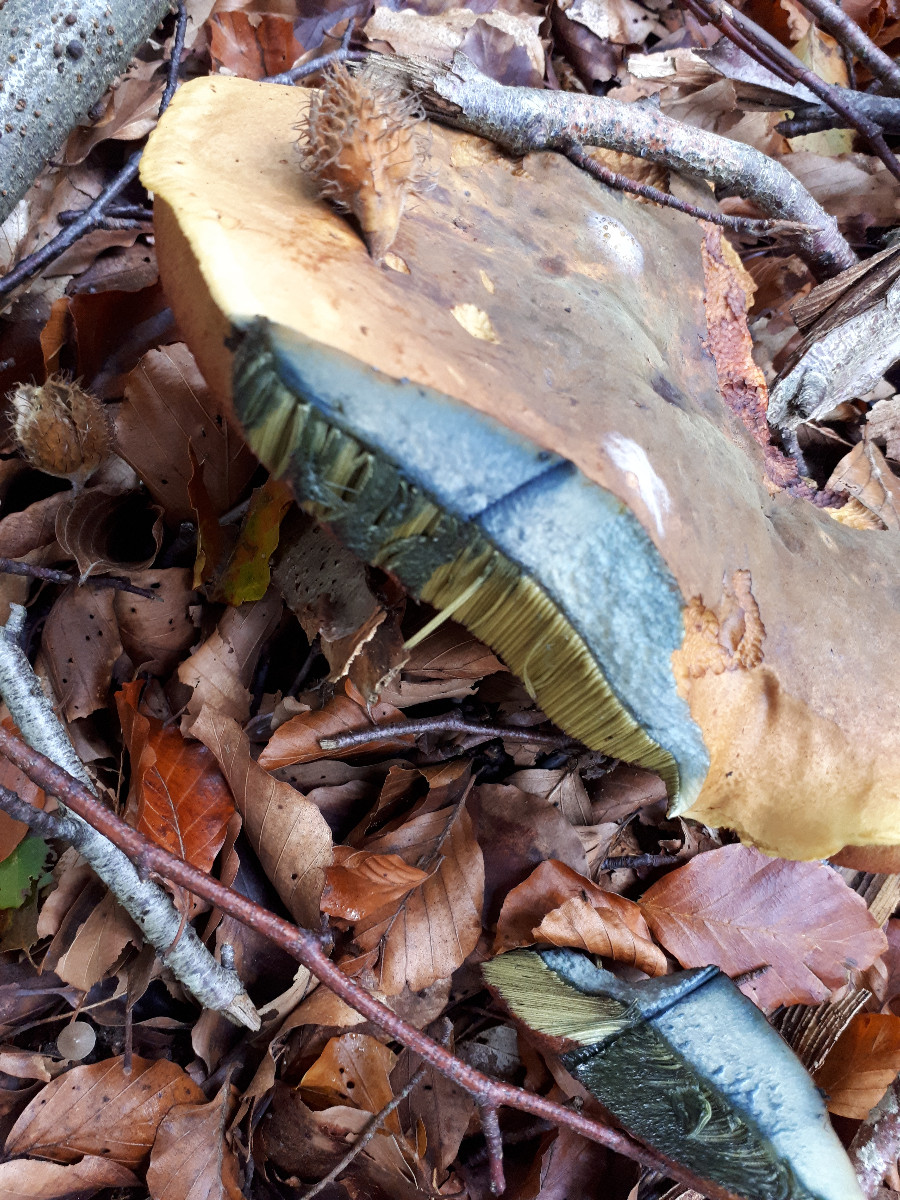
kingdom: Fungi
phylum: Basidiomycota
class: Agaricomycetes
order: Boletales
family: Boletaceae
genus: Neoboletus
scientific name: Neoboletus erythropus
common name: punktstokket indigorørhat
